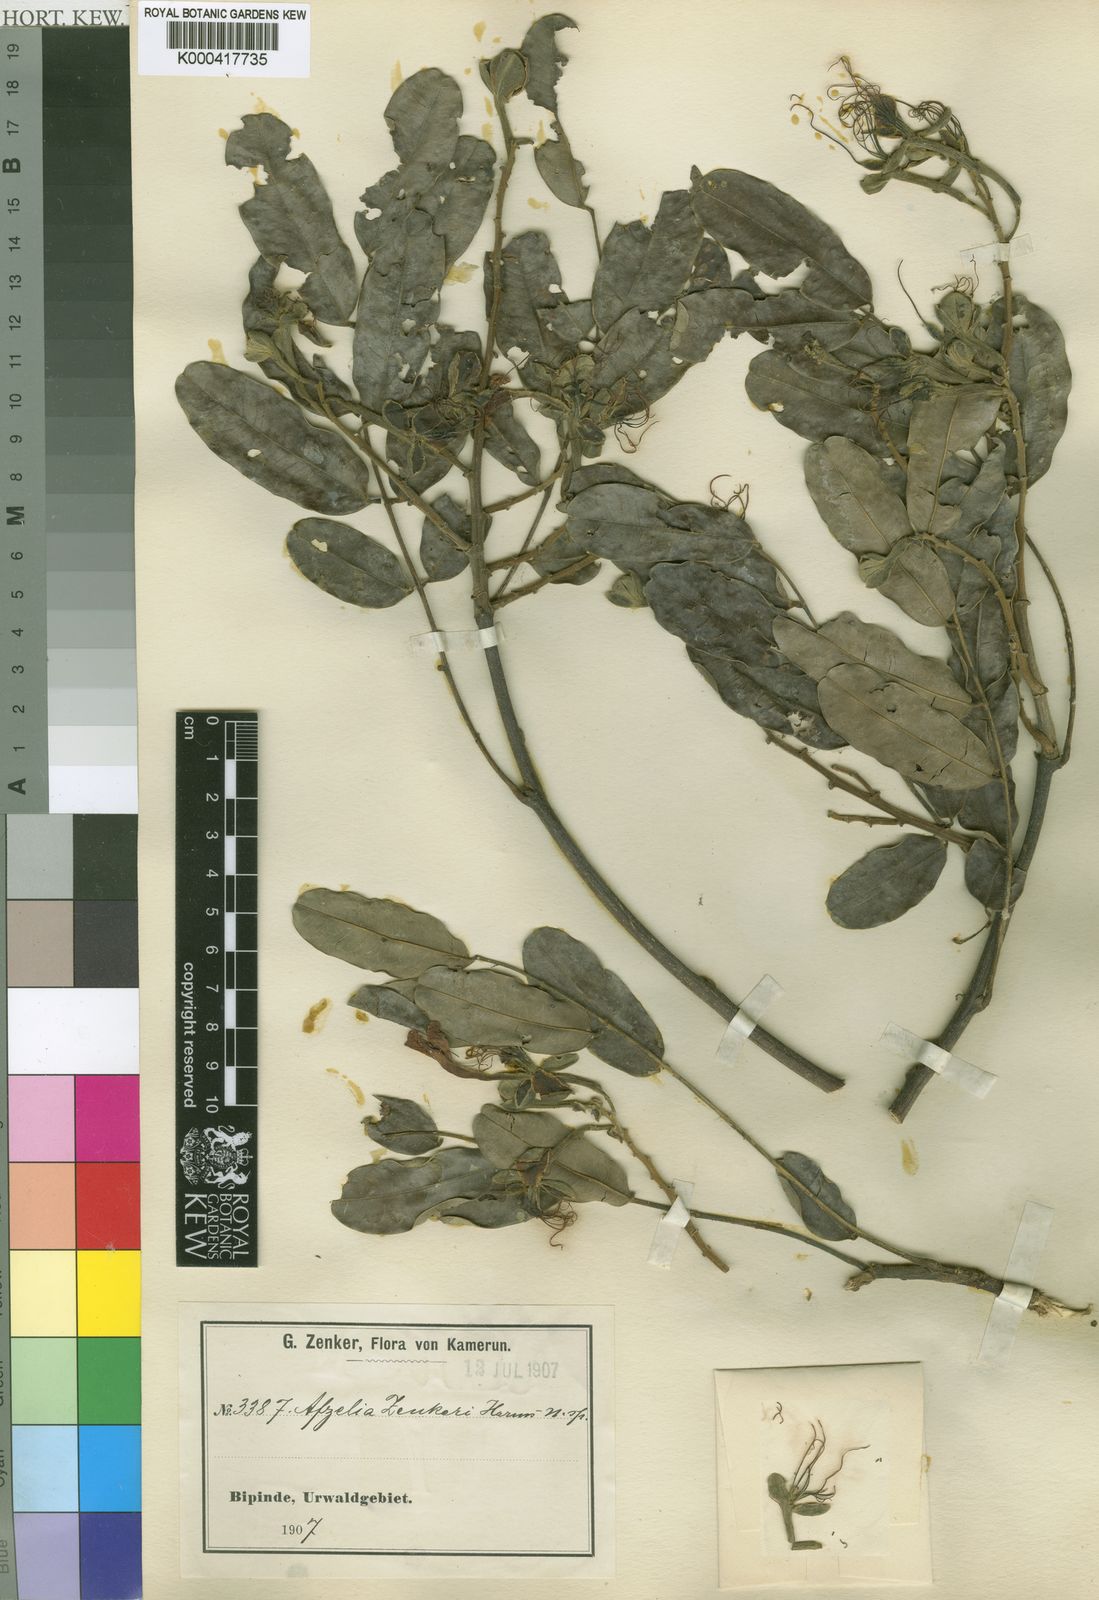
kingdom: Plantae
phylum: Tracheophyta
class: Magnoliopsida
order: Fabales
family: Fabaceae
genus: Afzelia
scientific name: Afzelia pachyloba
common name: White afzelia
